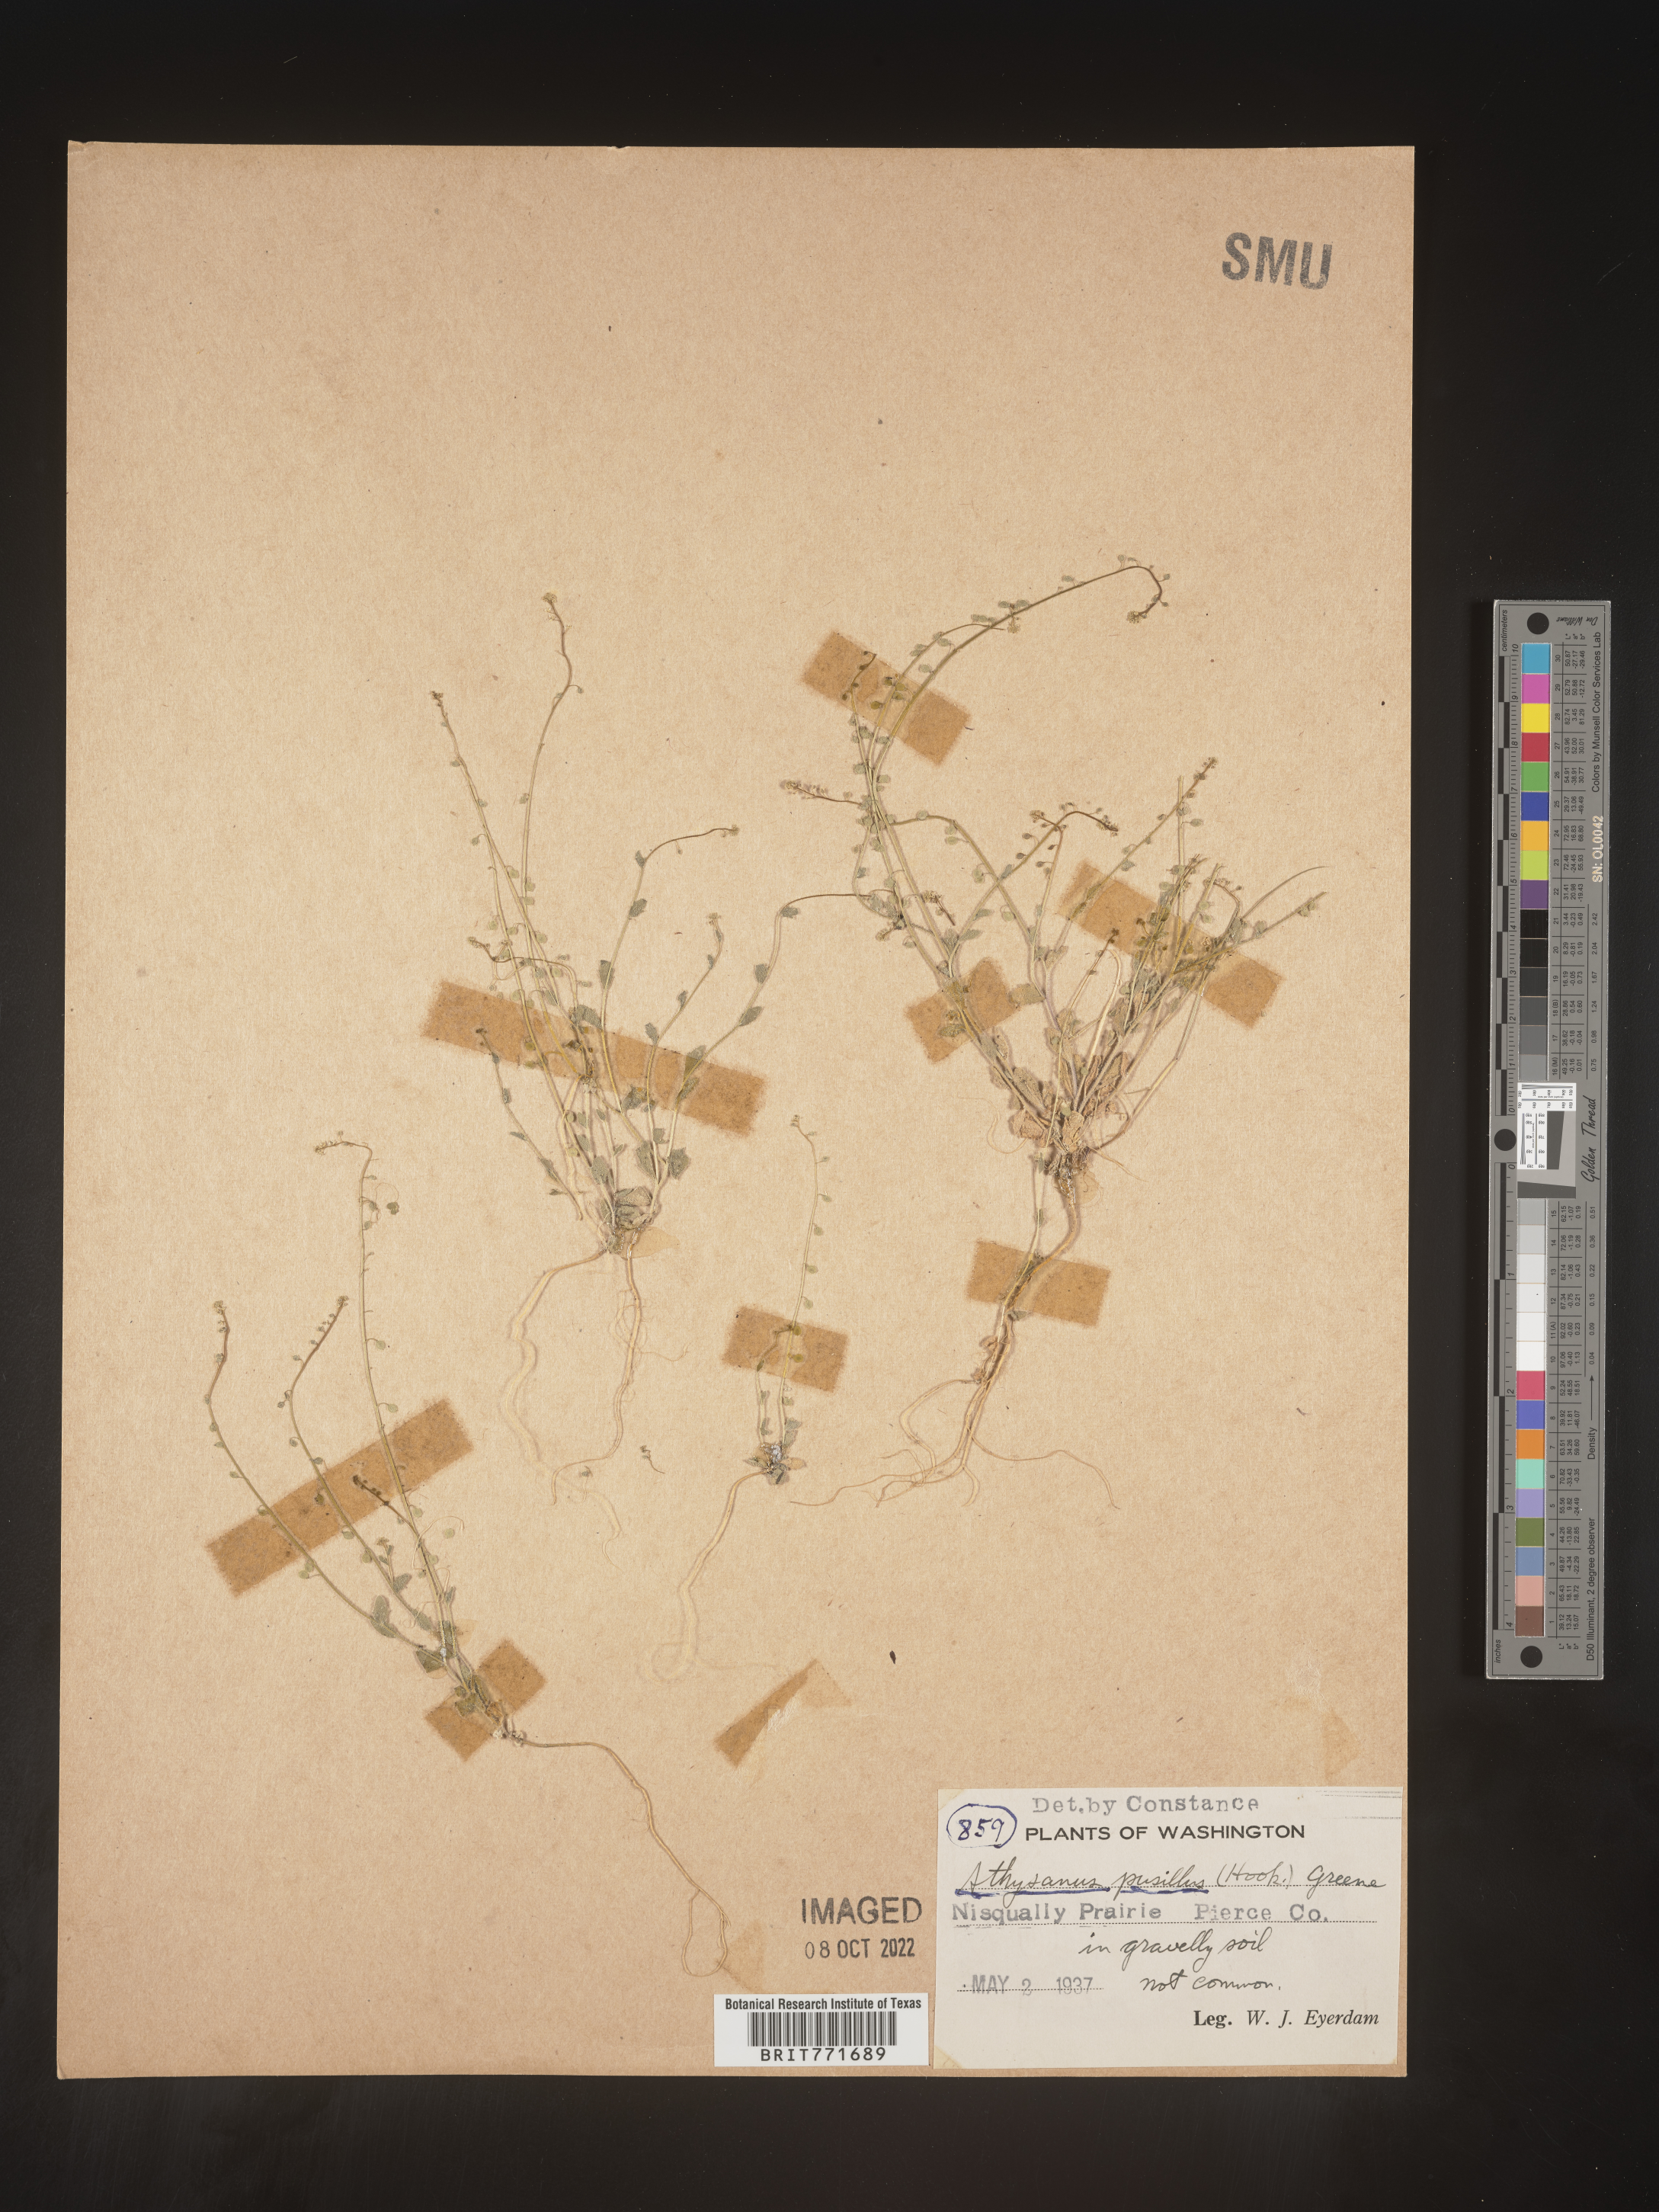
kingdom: Plantae
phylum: Tracheophyta
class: Magnoliopsida
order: Brassicales
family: Brassicaceae
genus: Athysanus
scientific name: Athysanus
